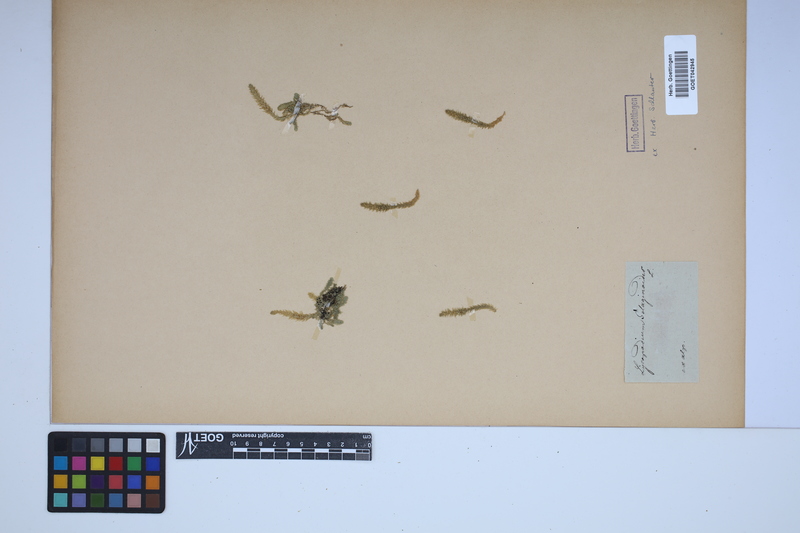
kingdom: Plantae
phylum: Tracheophyta
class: Lycopodiopsida
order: Selaginellales
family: Selaginellaceae
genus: Selaginella
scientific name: Selaginella selaginoides
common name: Prickly mountain-moss
